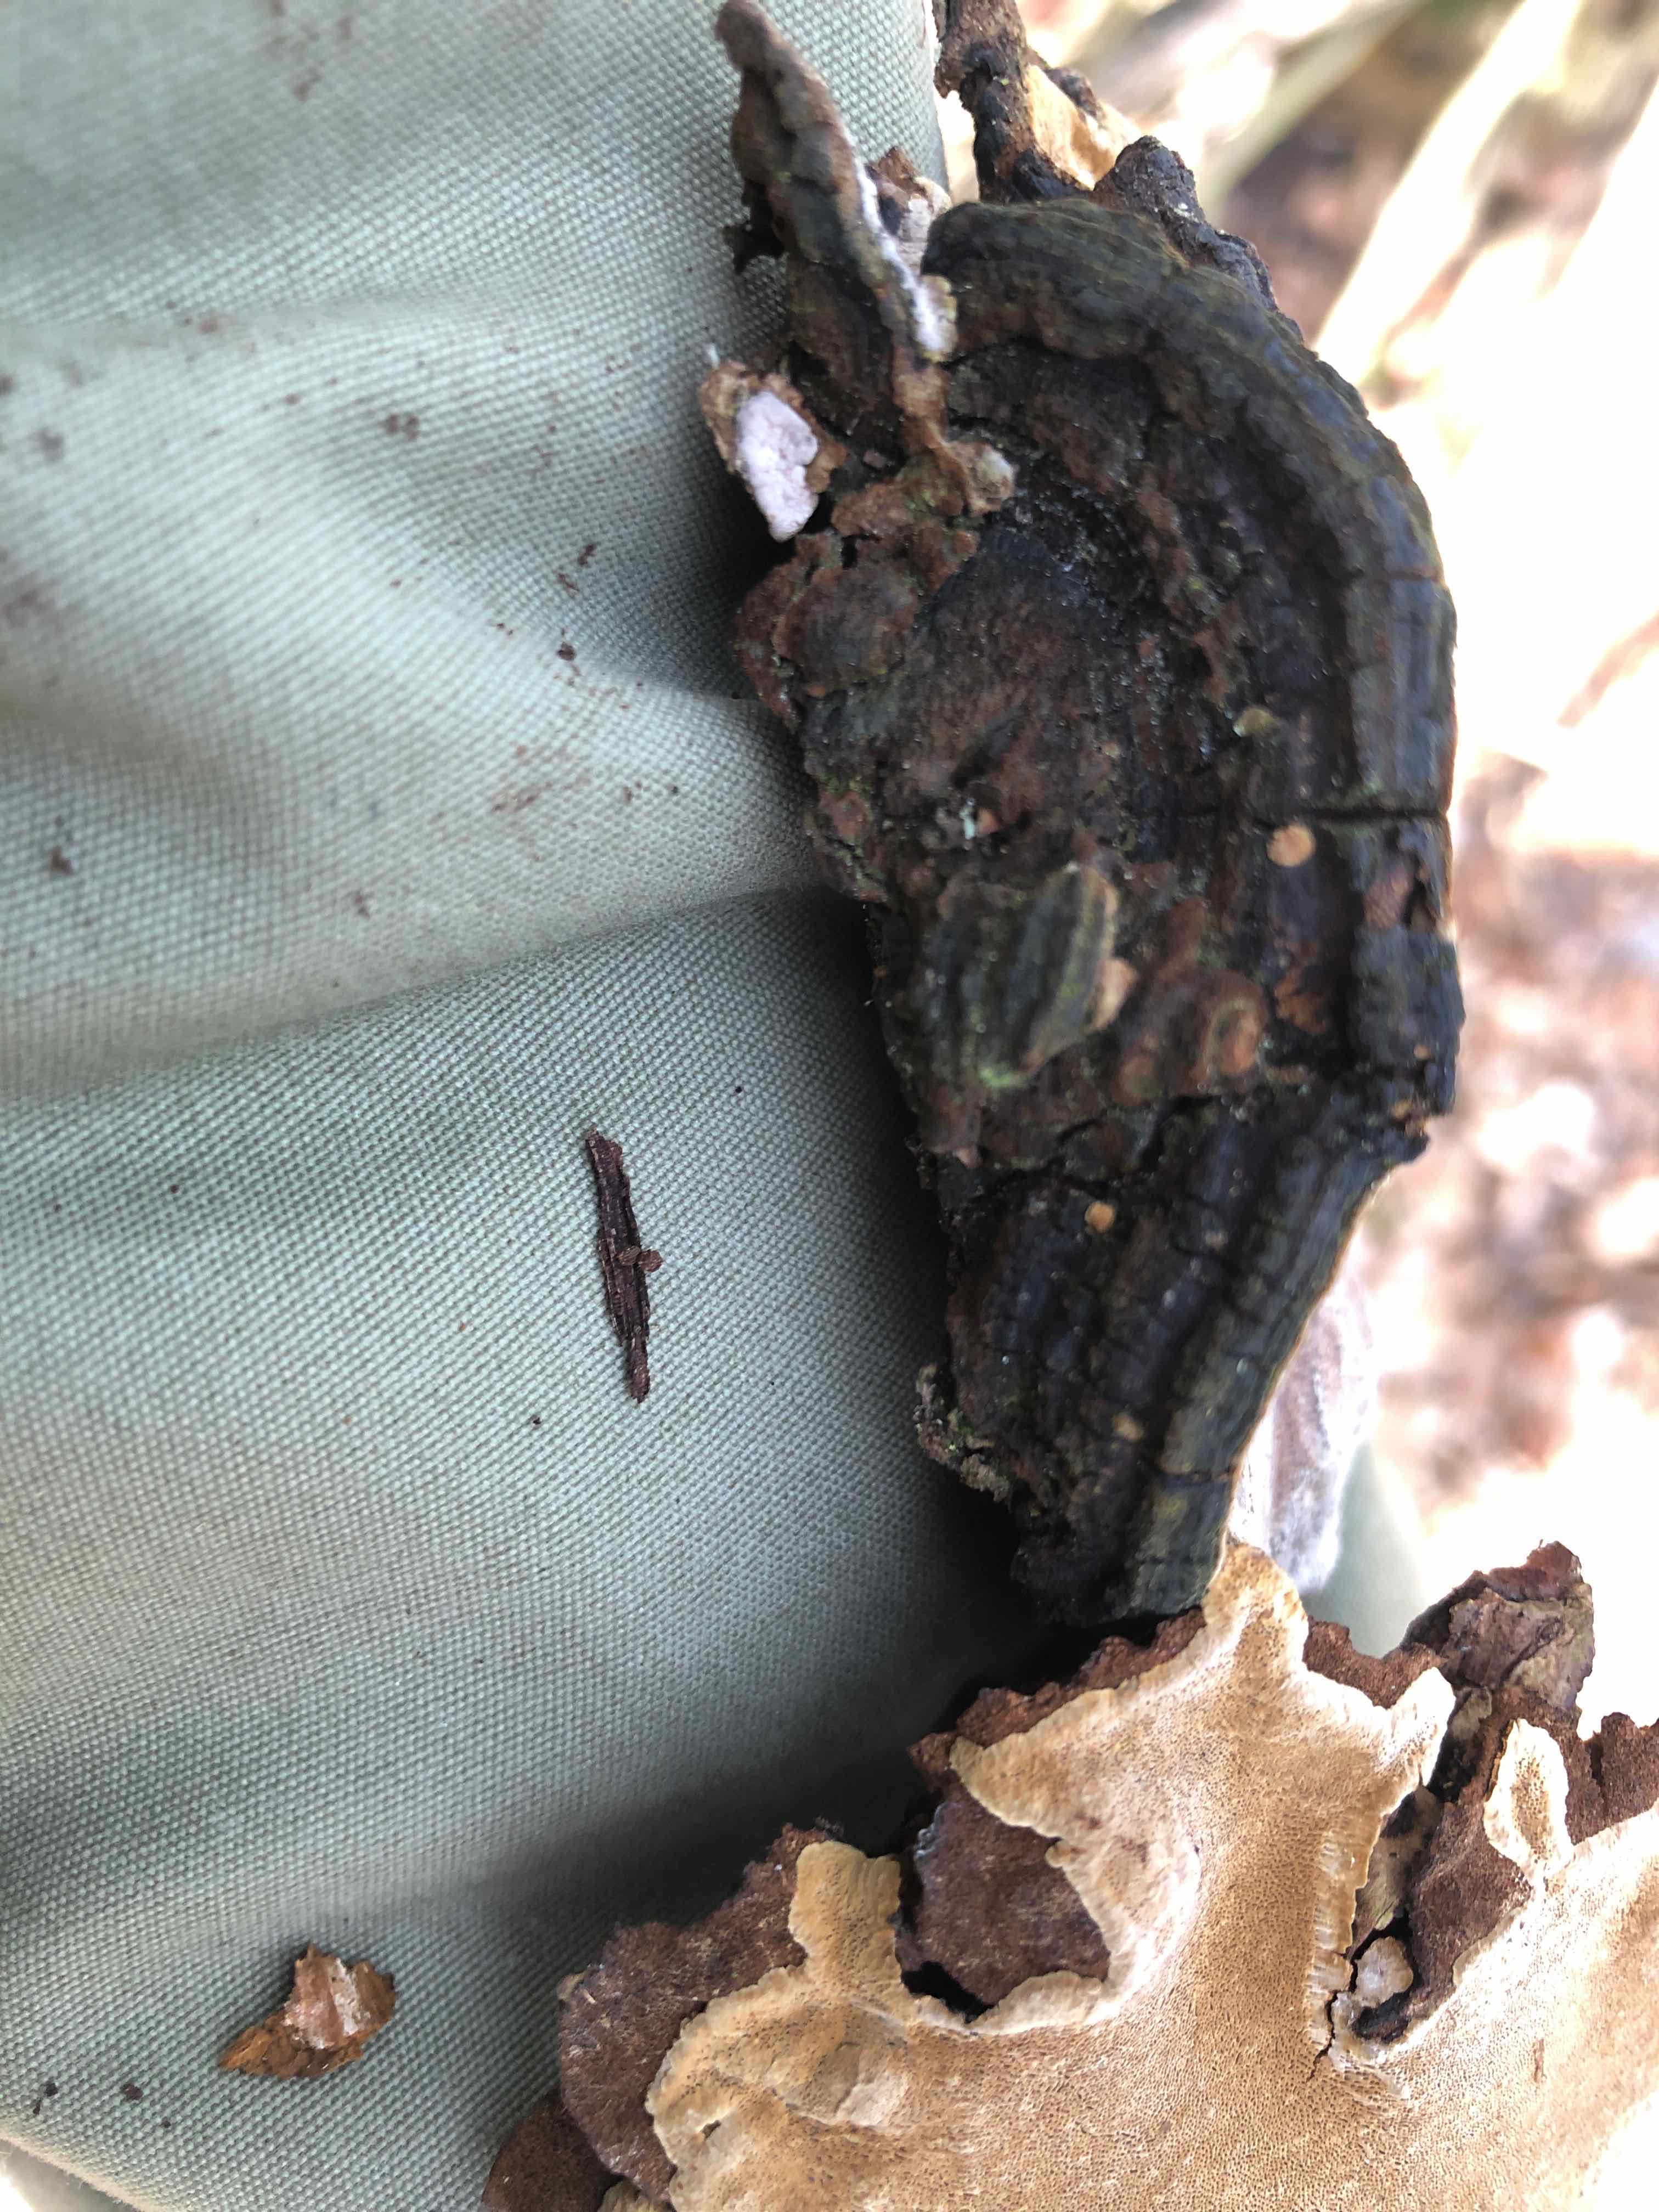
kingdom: Fungi
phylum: Basidiomycota
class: Agaricomycetes
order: Hymenochaetales
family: Hymenochaetaceae
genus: Phellinopsis
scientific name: Phellinopsis conchata
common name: pile-ildporesvamp
